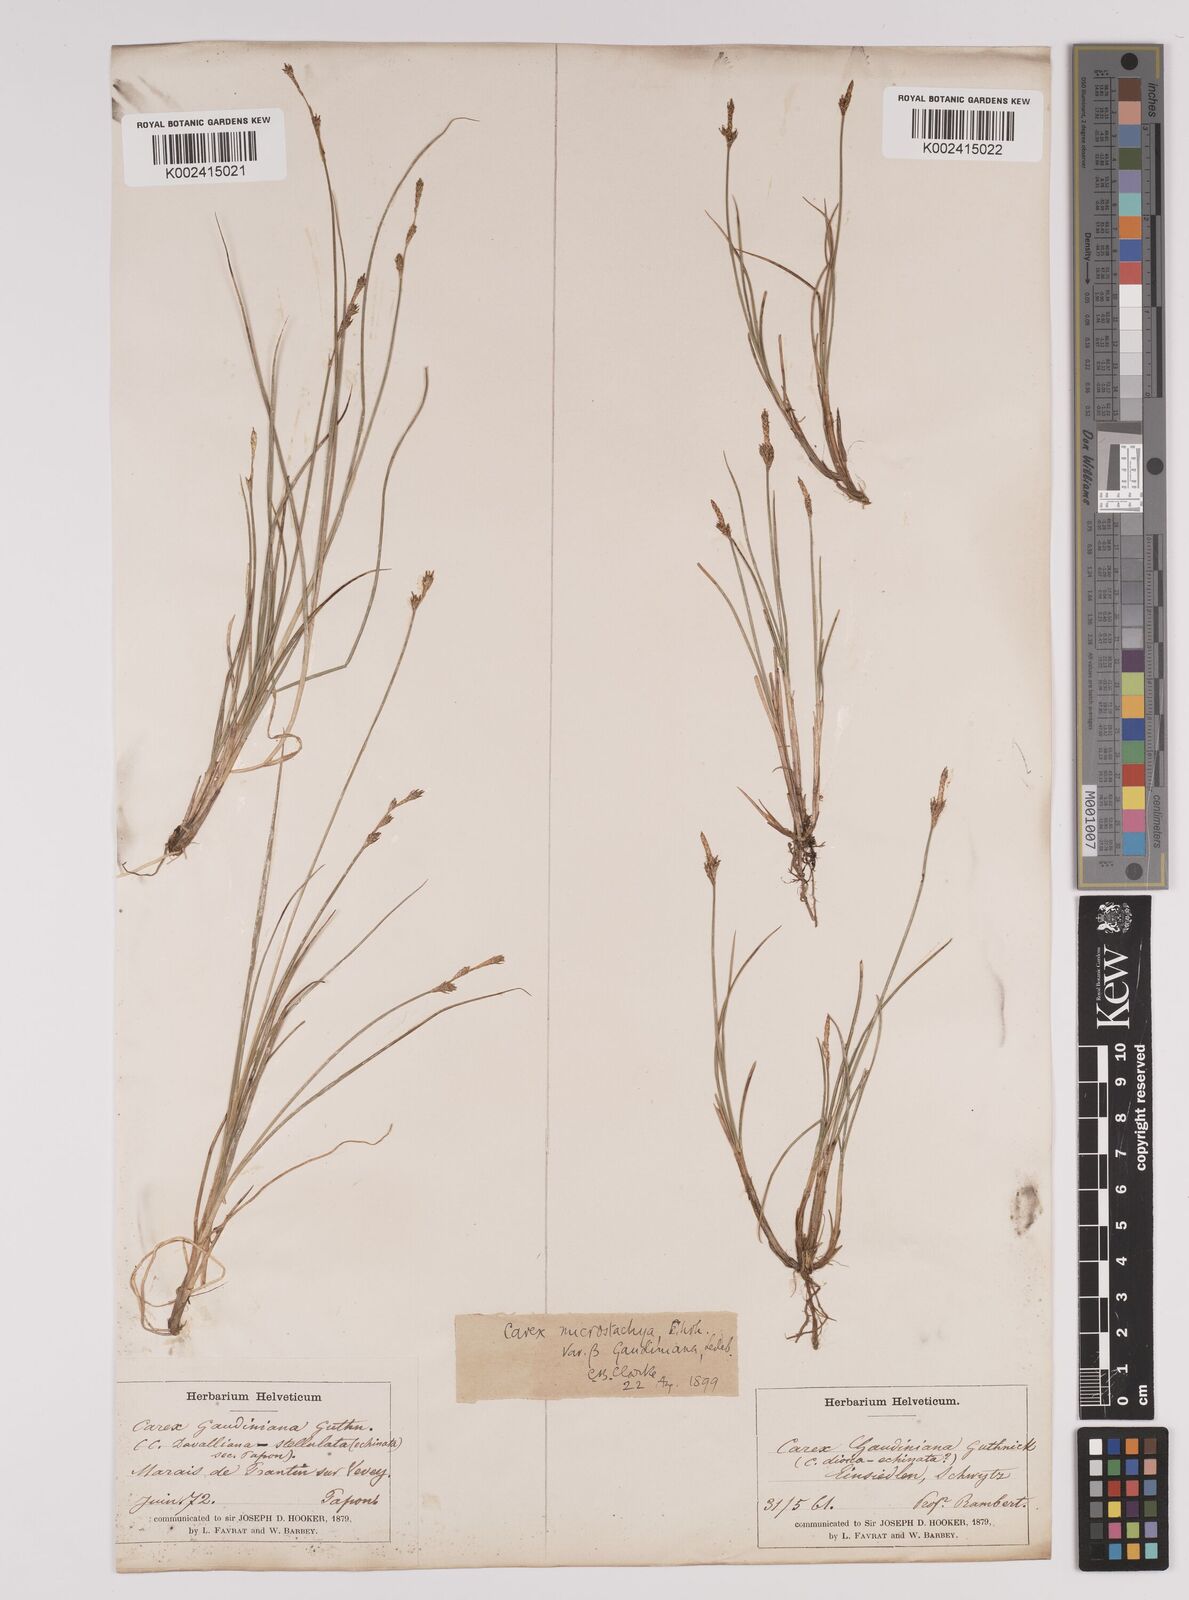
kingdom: Plantae
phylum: Tracheophyta
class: Liliopsida
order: Poales
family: Cyperaceae
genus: Carex
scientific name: Carex dioica
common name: Dioecious sedge
